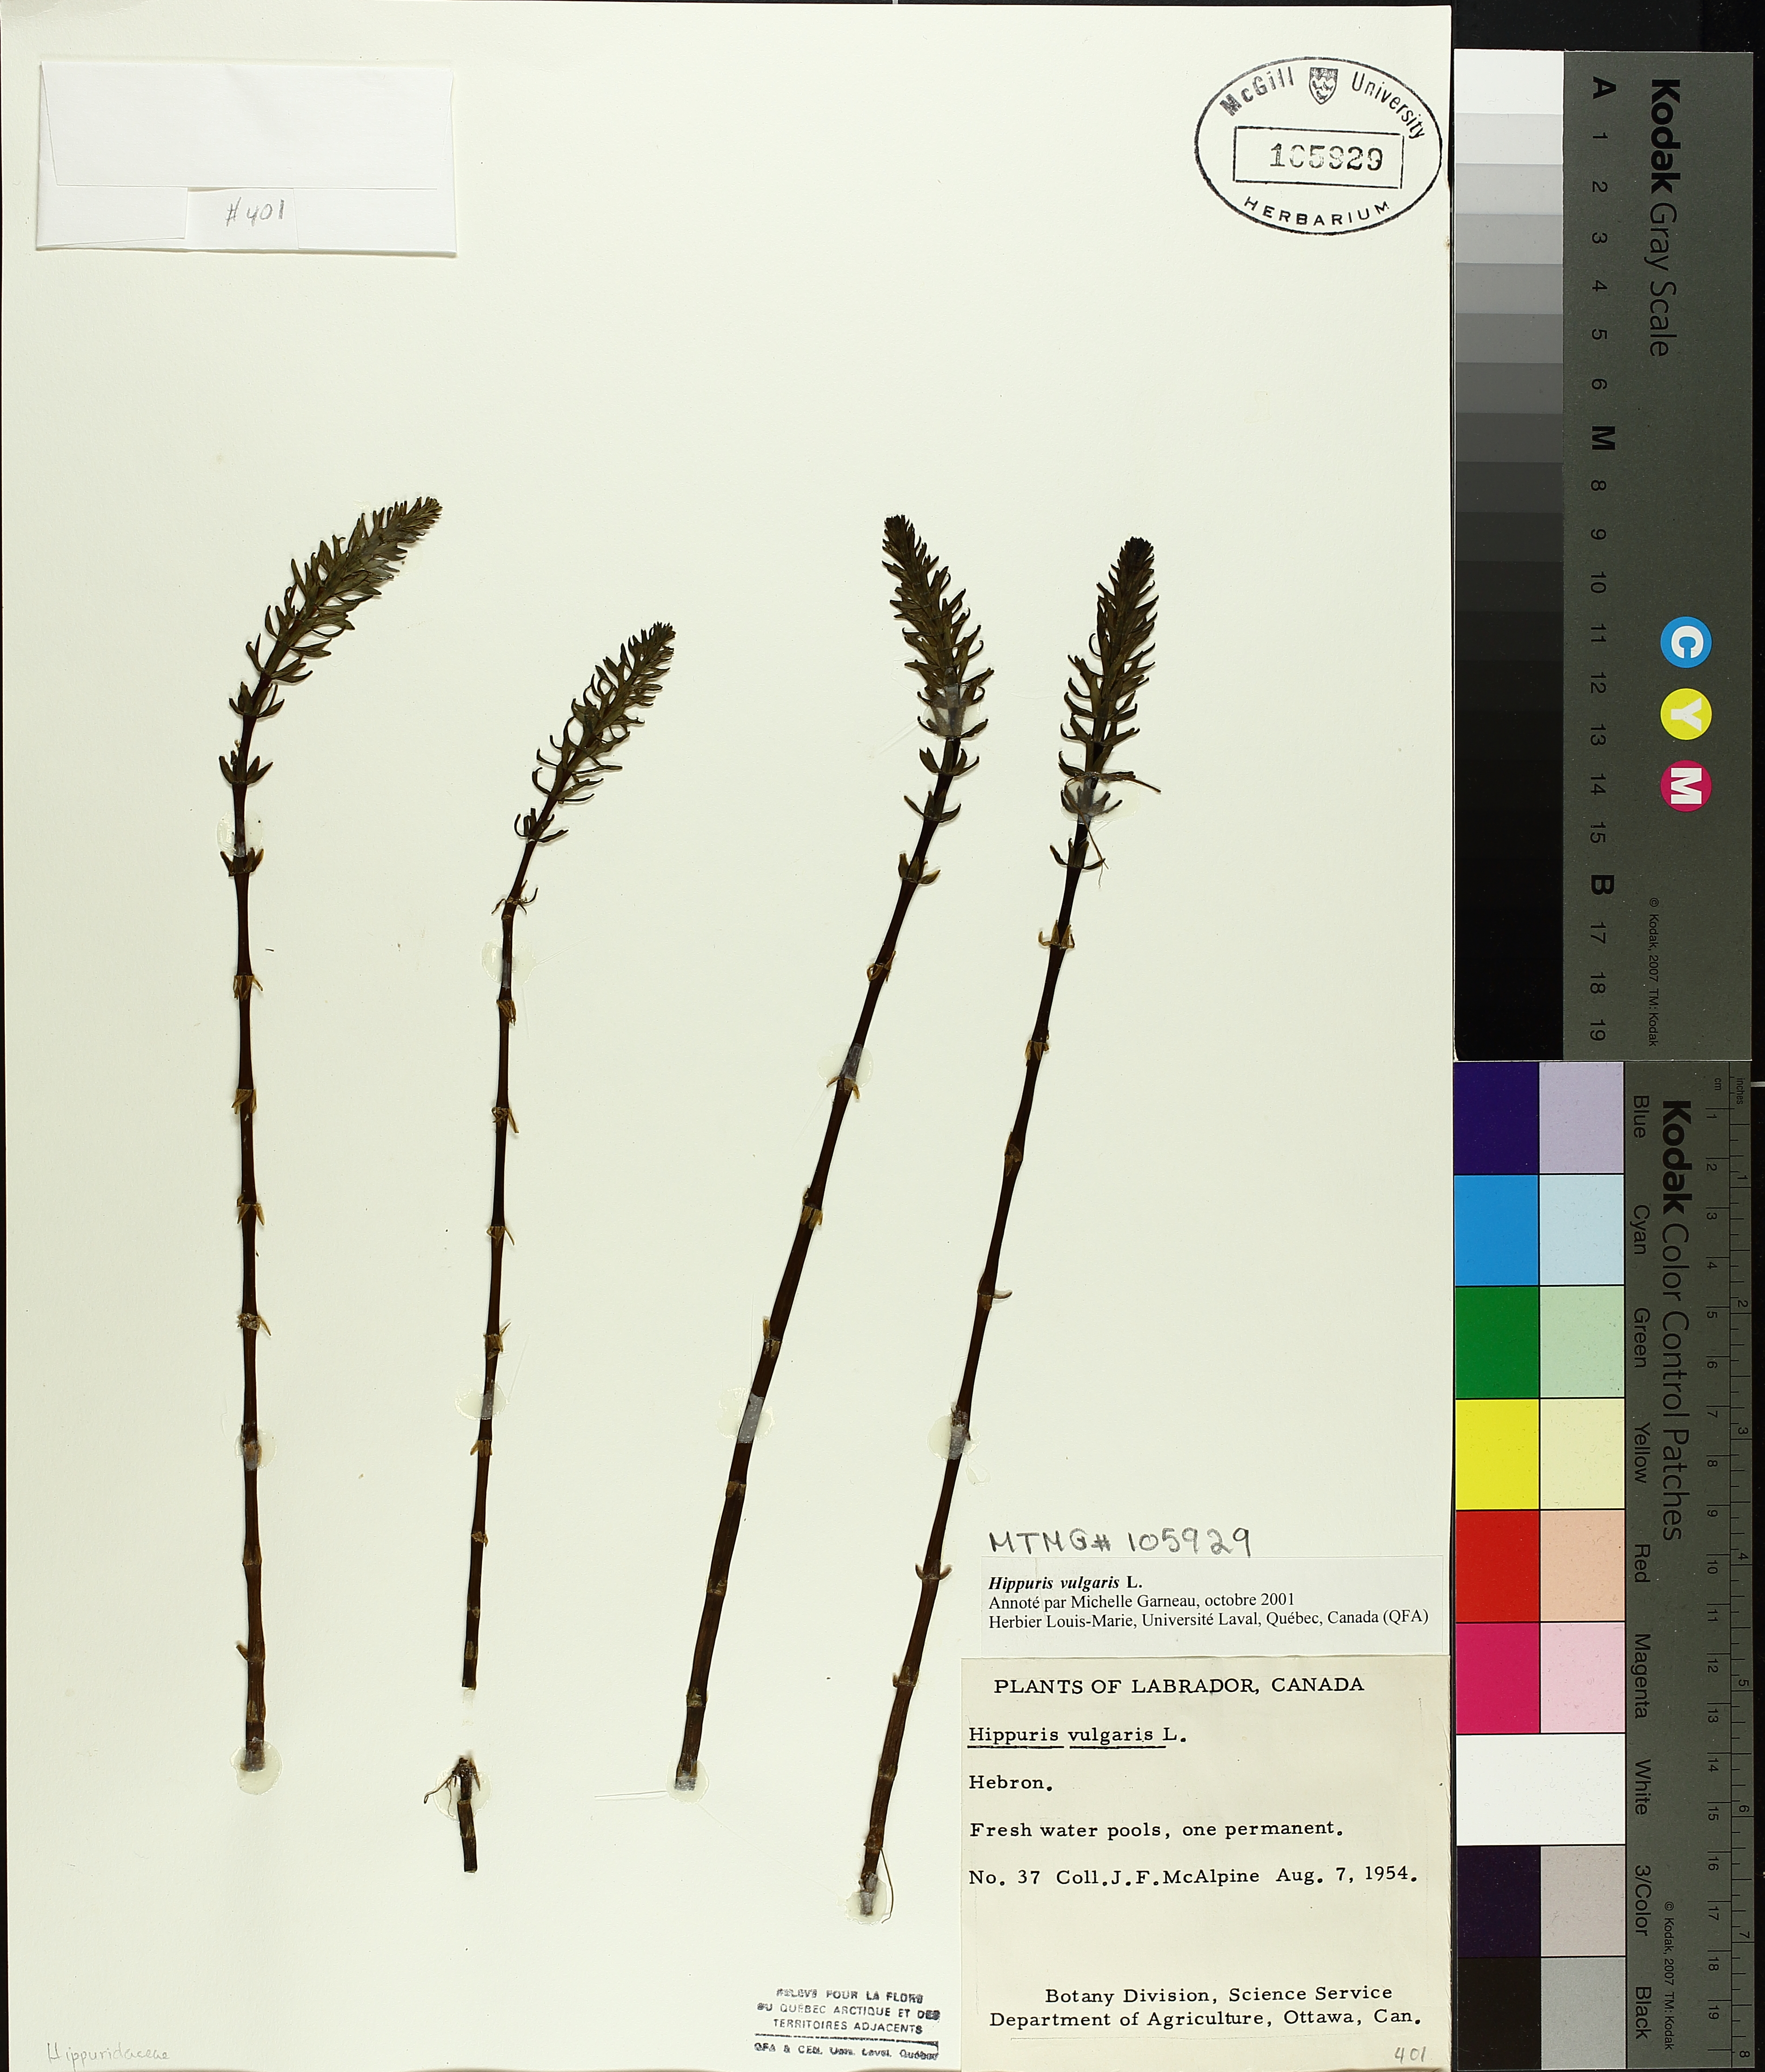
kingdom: Plantae
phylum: Tracheophyta
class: Magnoliopsida
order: Lamiales
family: Plantaginaceae
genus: Hippuris
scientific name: Hippuris vulgaris
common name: Mare's-tail
